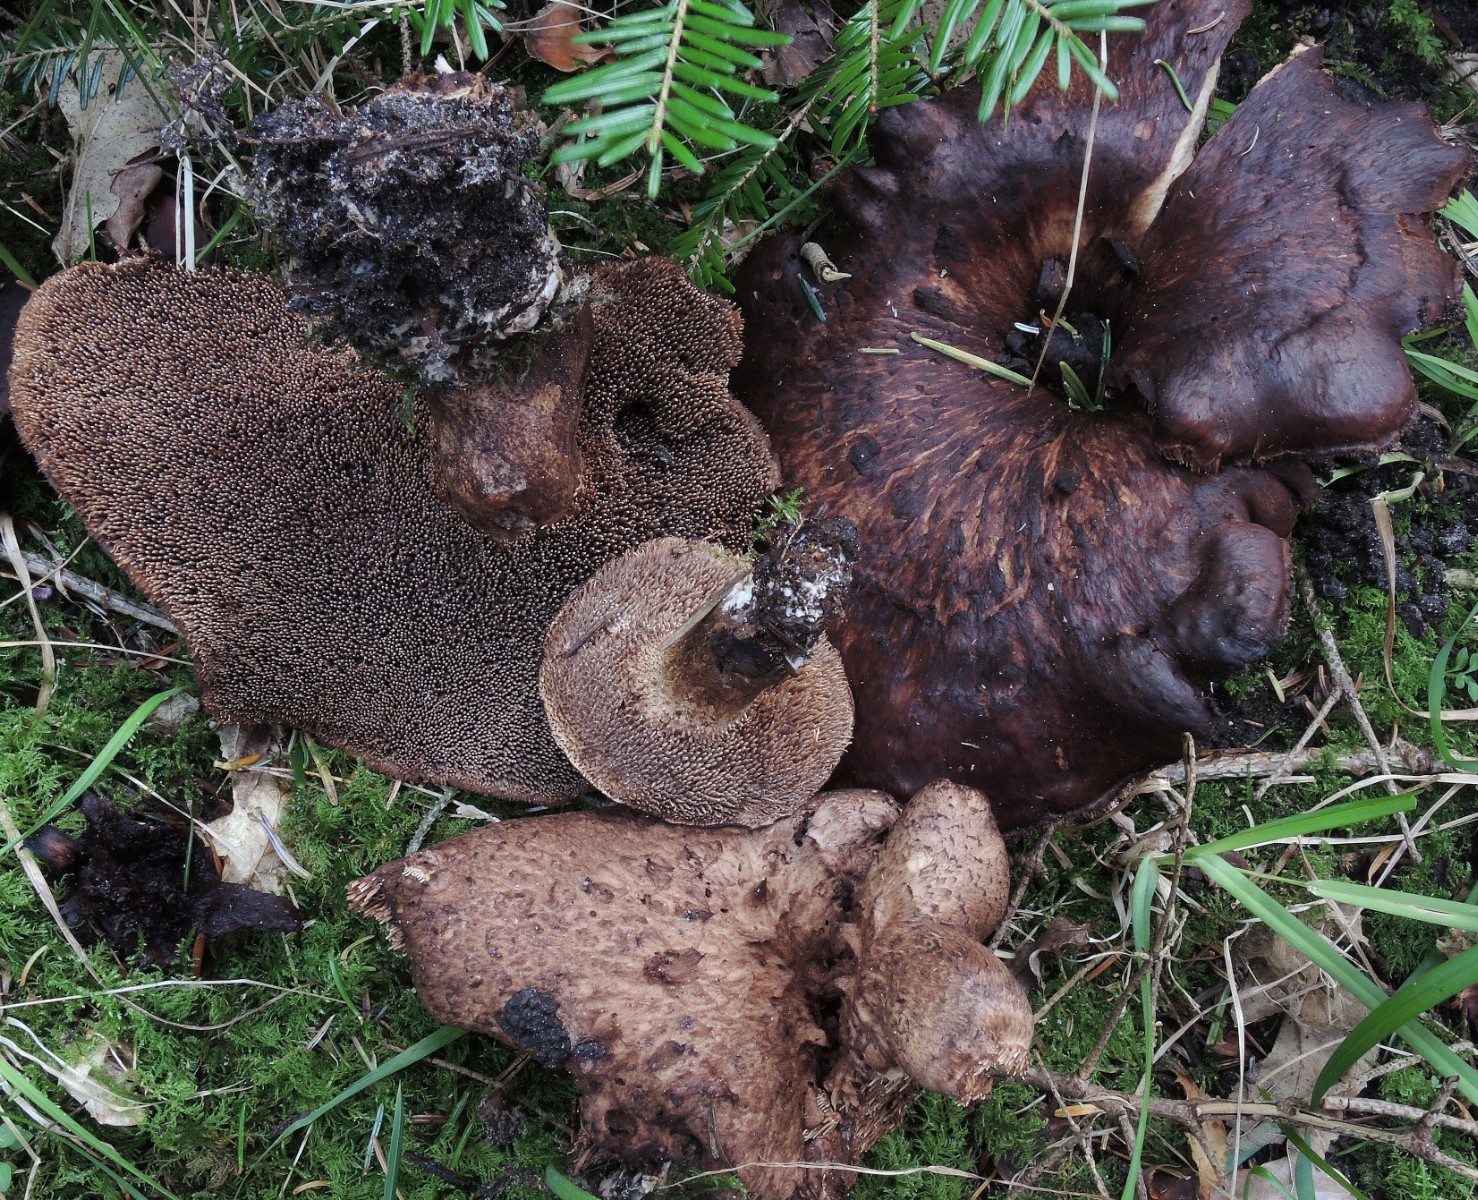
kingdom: Fungi
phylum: Basidiomycota
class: Agaricomycetes
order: Thelephorales
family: Bankeraceae
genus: Sarcodon
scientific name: Sarcodon imbricatus
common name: skællet kødpigsvamp
